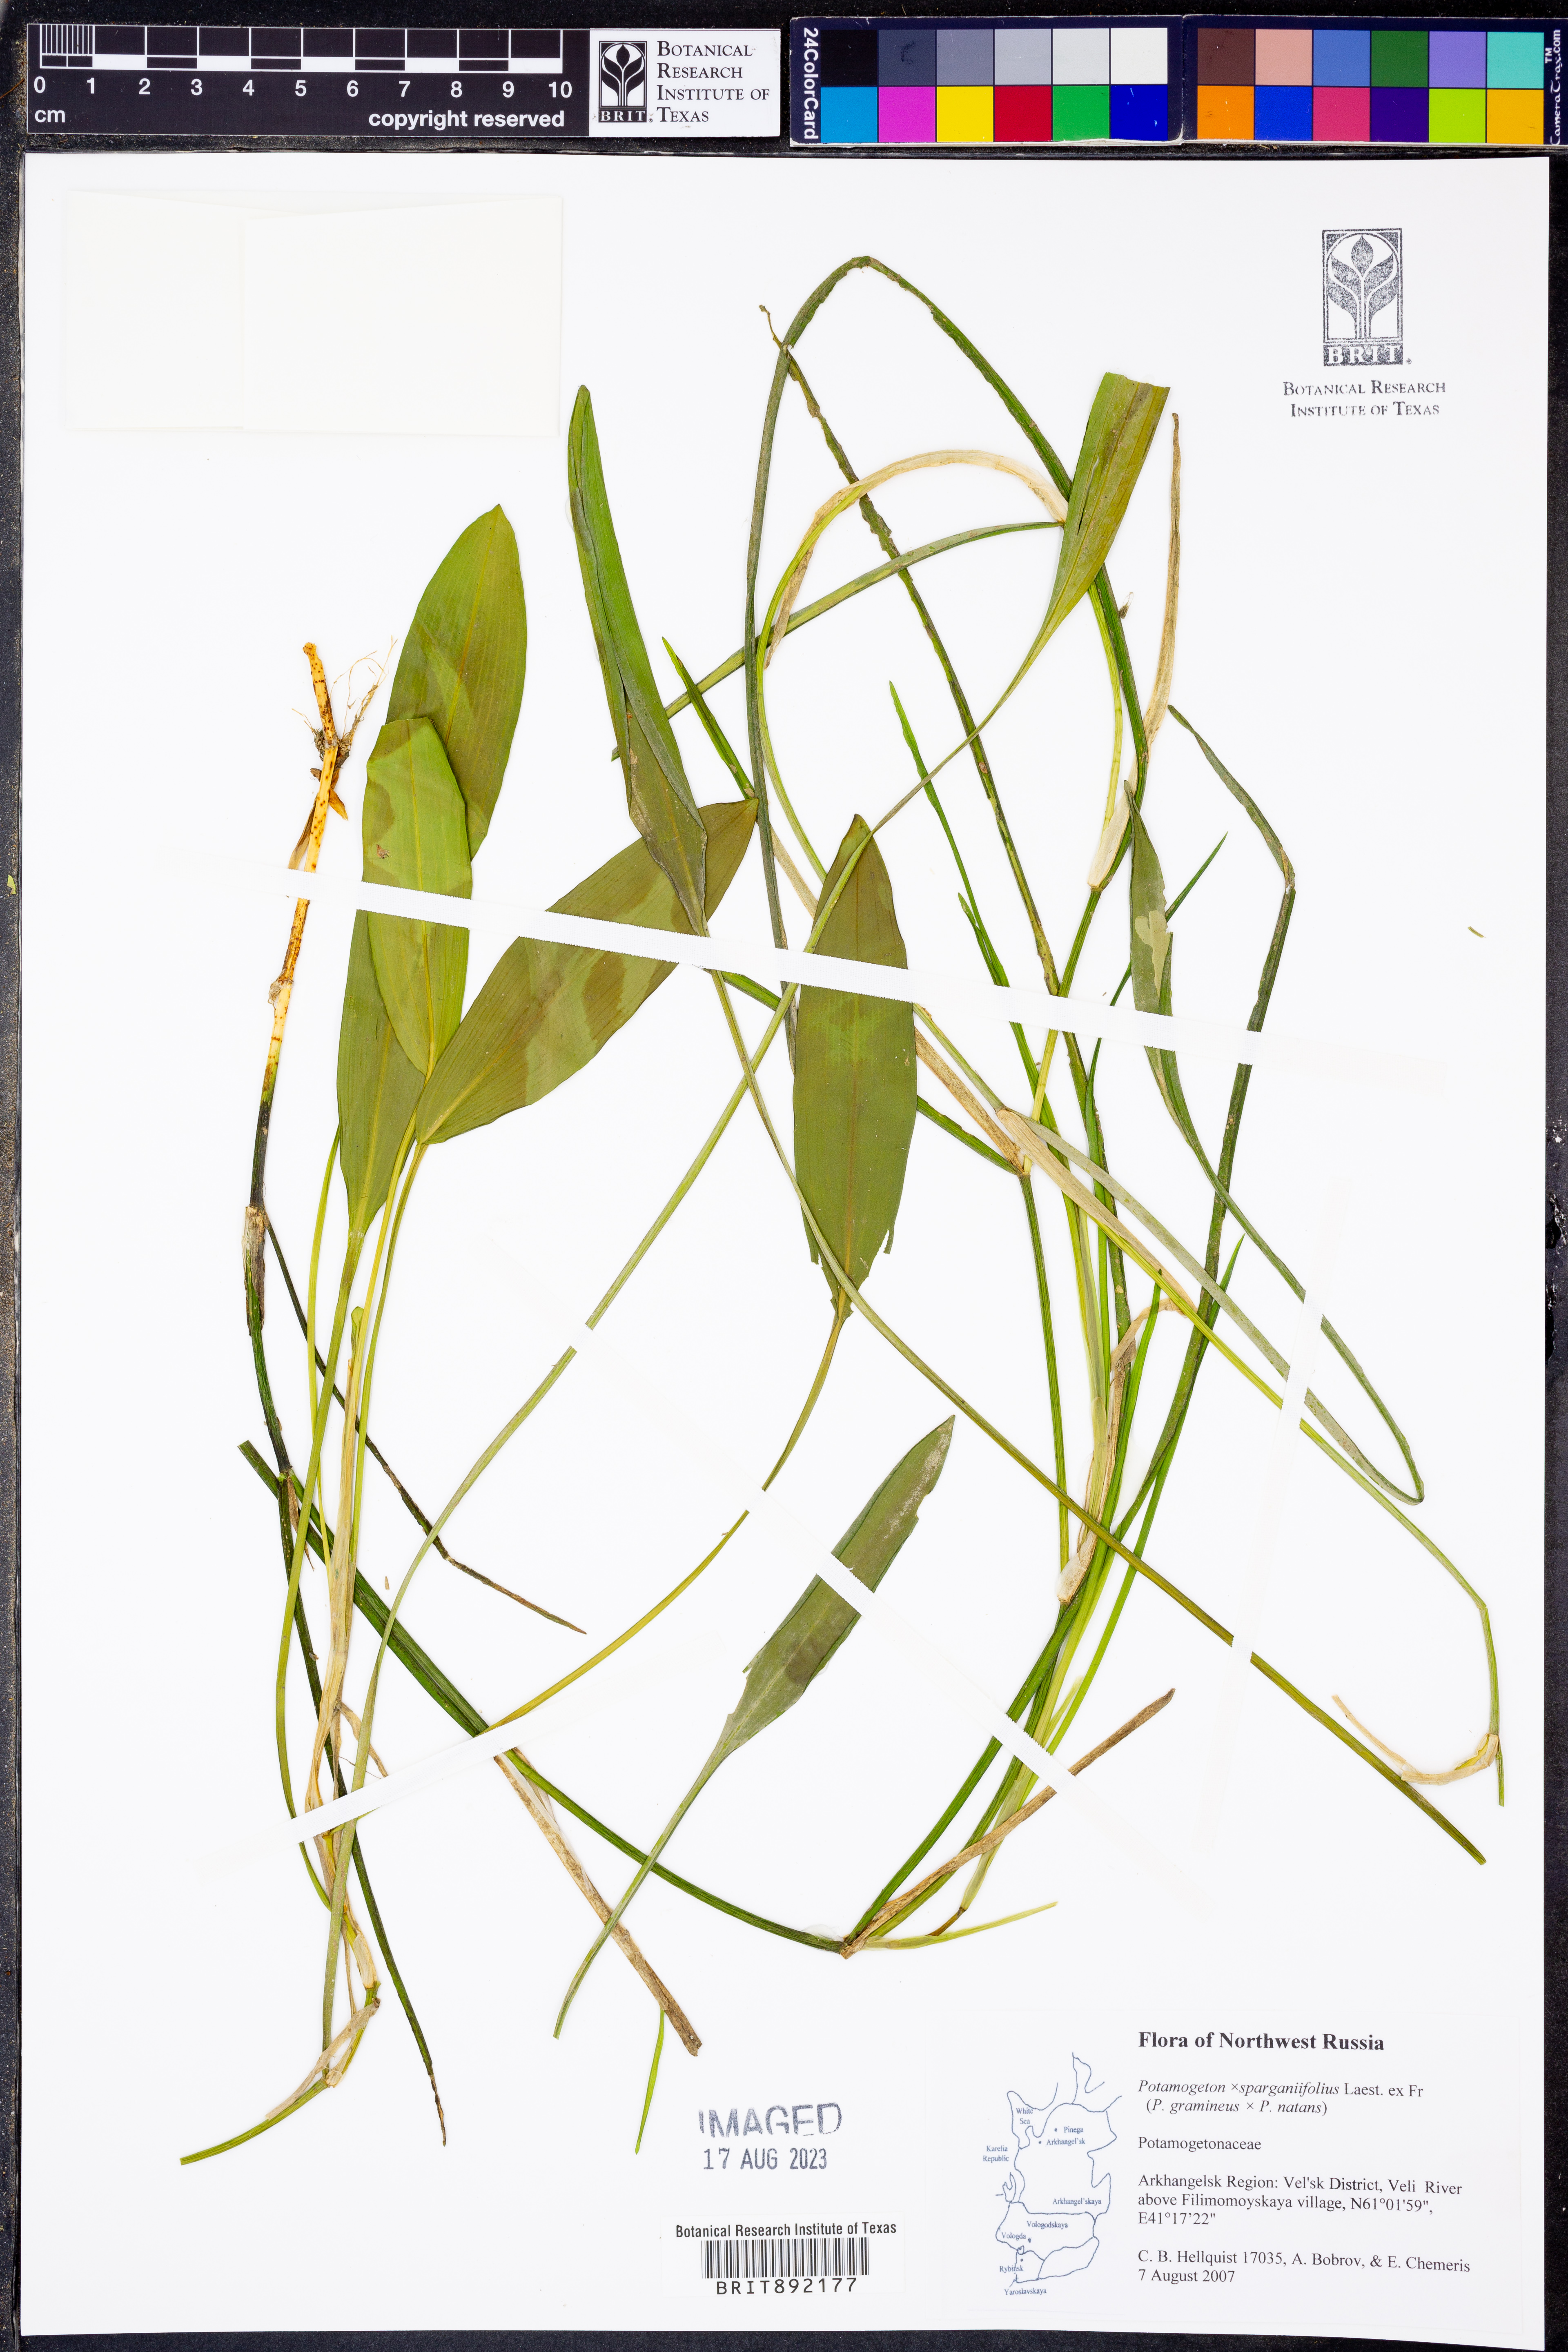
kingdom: Plantae
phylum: Tracheophyta
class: Liliopsida
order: Alismatales
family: Potamogetonaceae
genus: Potamogeton
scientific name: Potamogeton
